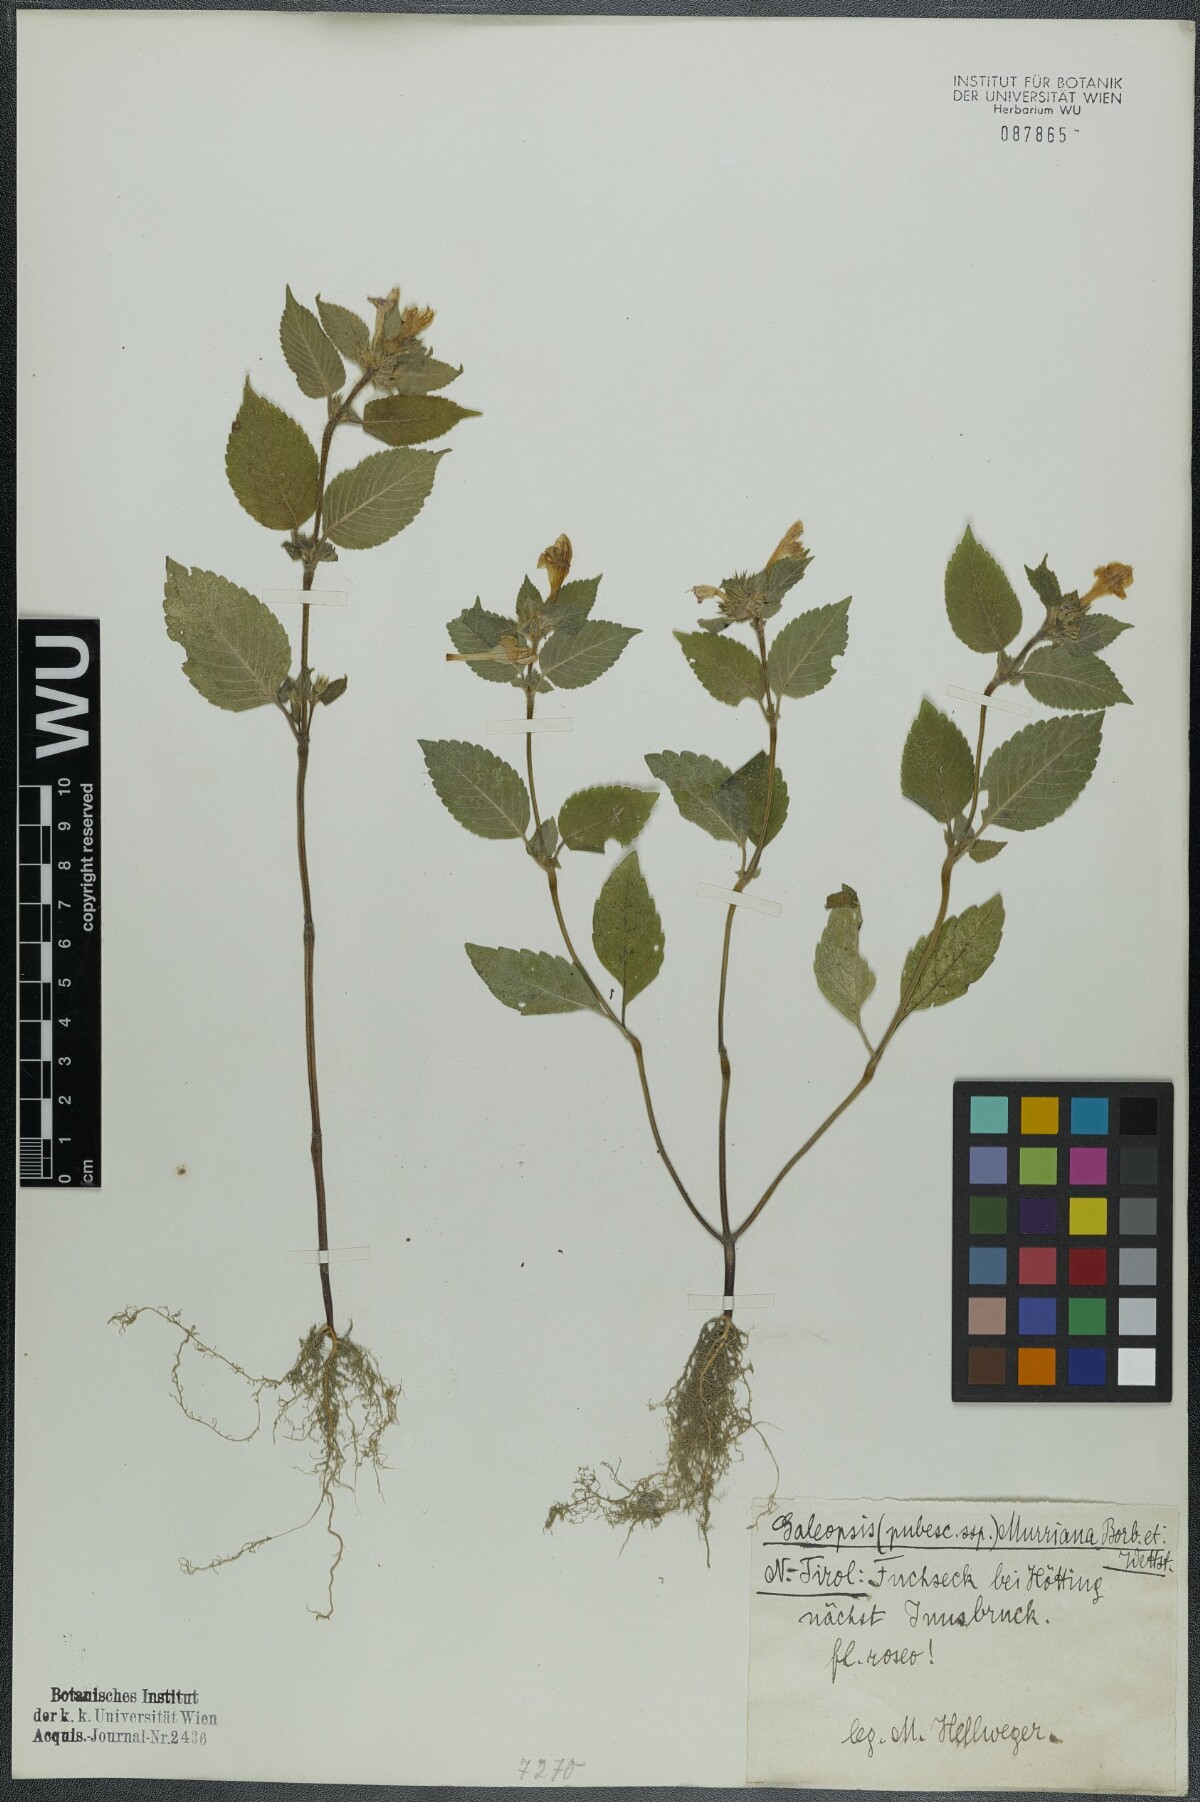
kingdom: Plantae
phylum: Tracheophyta
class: Magnoliopsida
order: Lamiales
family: Lamiaceae
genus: Galeopsis
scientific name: Galeopsis pubescens
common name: Downy hemp-nettle
